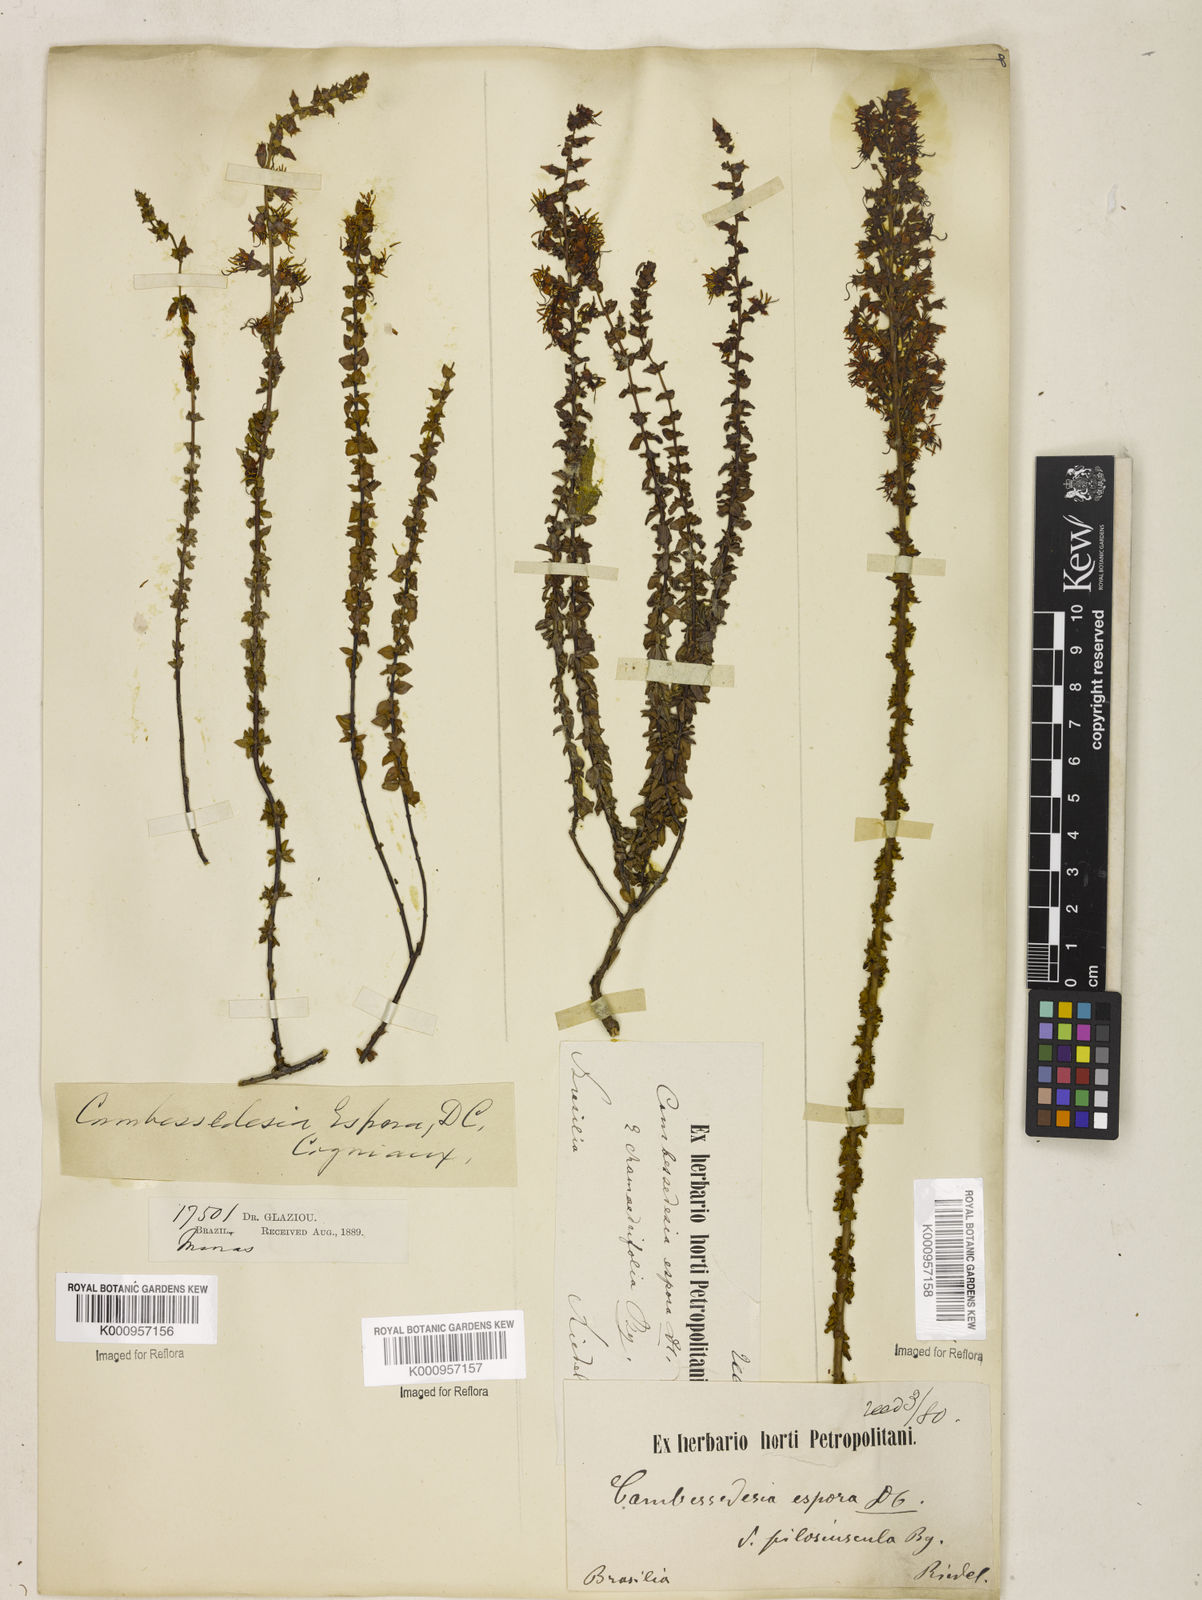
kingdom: Plantae
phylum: Tracheophyta
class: Magnoliopsida
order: Myrtales
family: Melastomataceae
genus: Cambessedesia
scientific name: Cambessedesia espora
